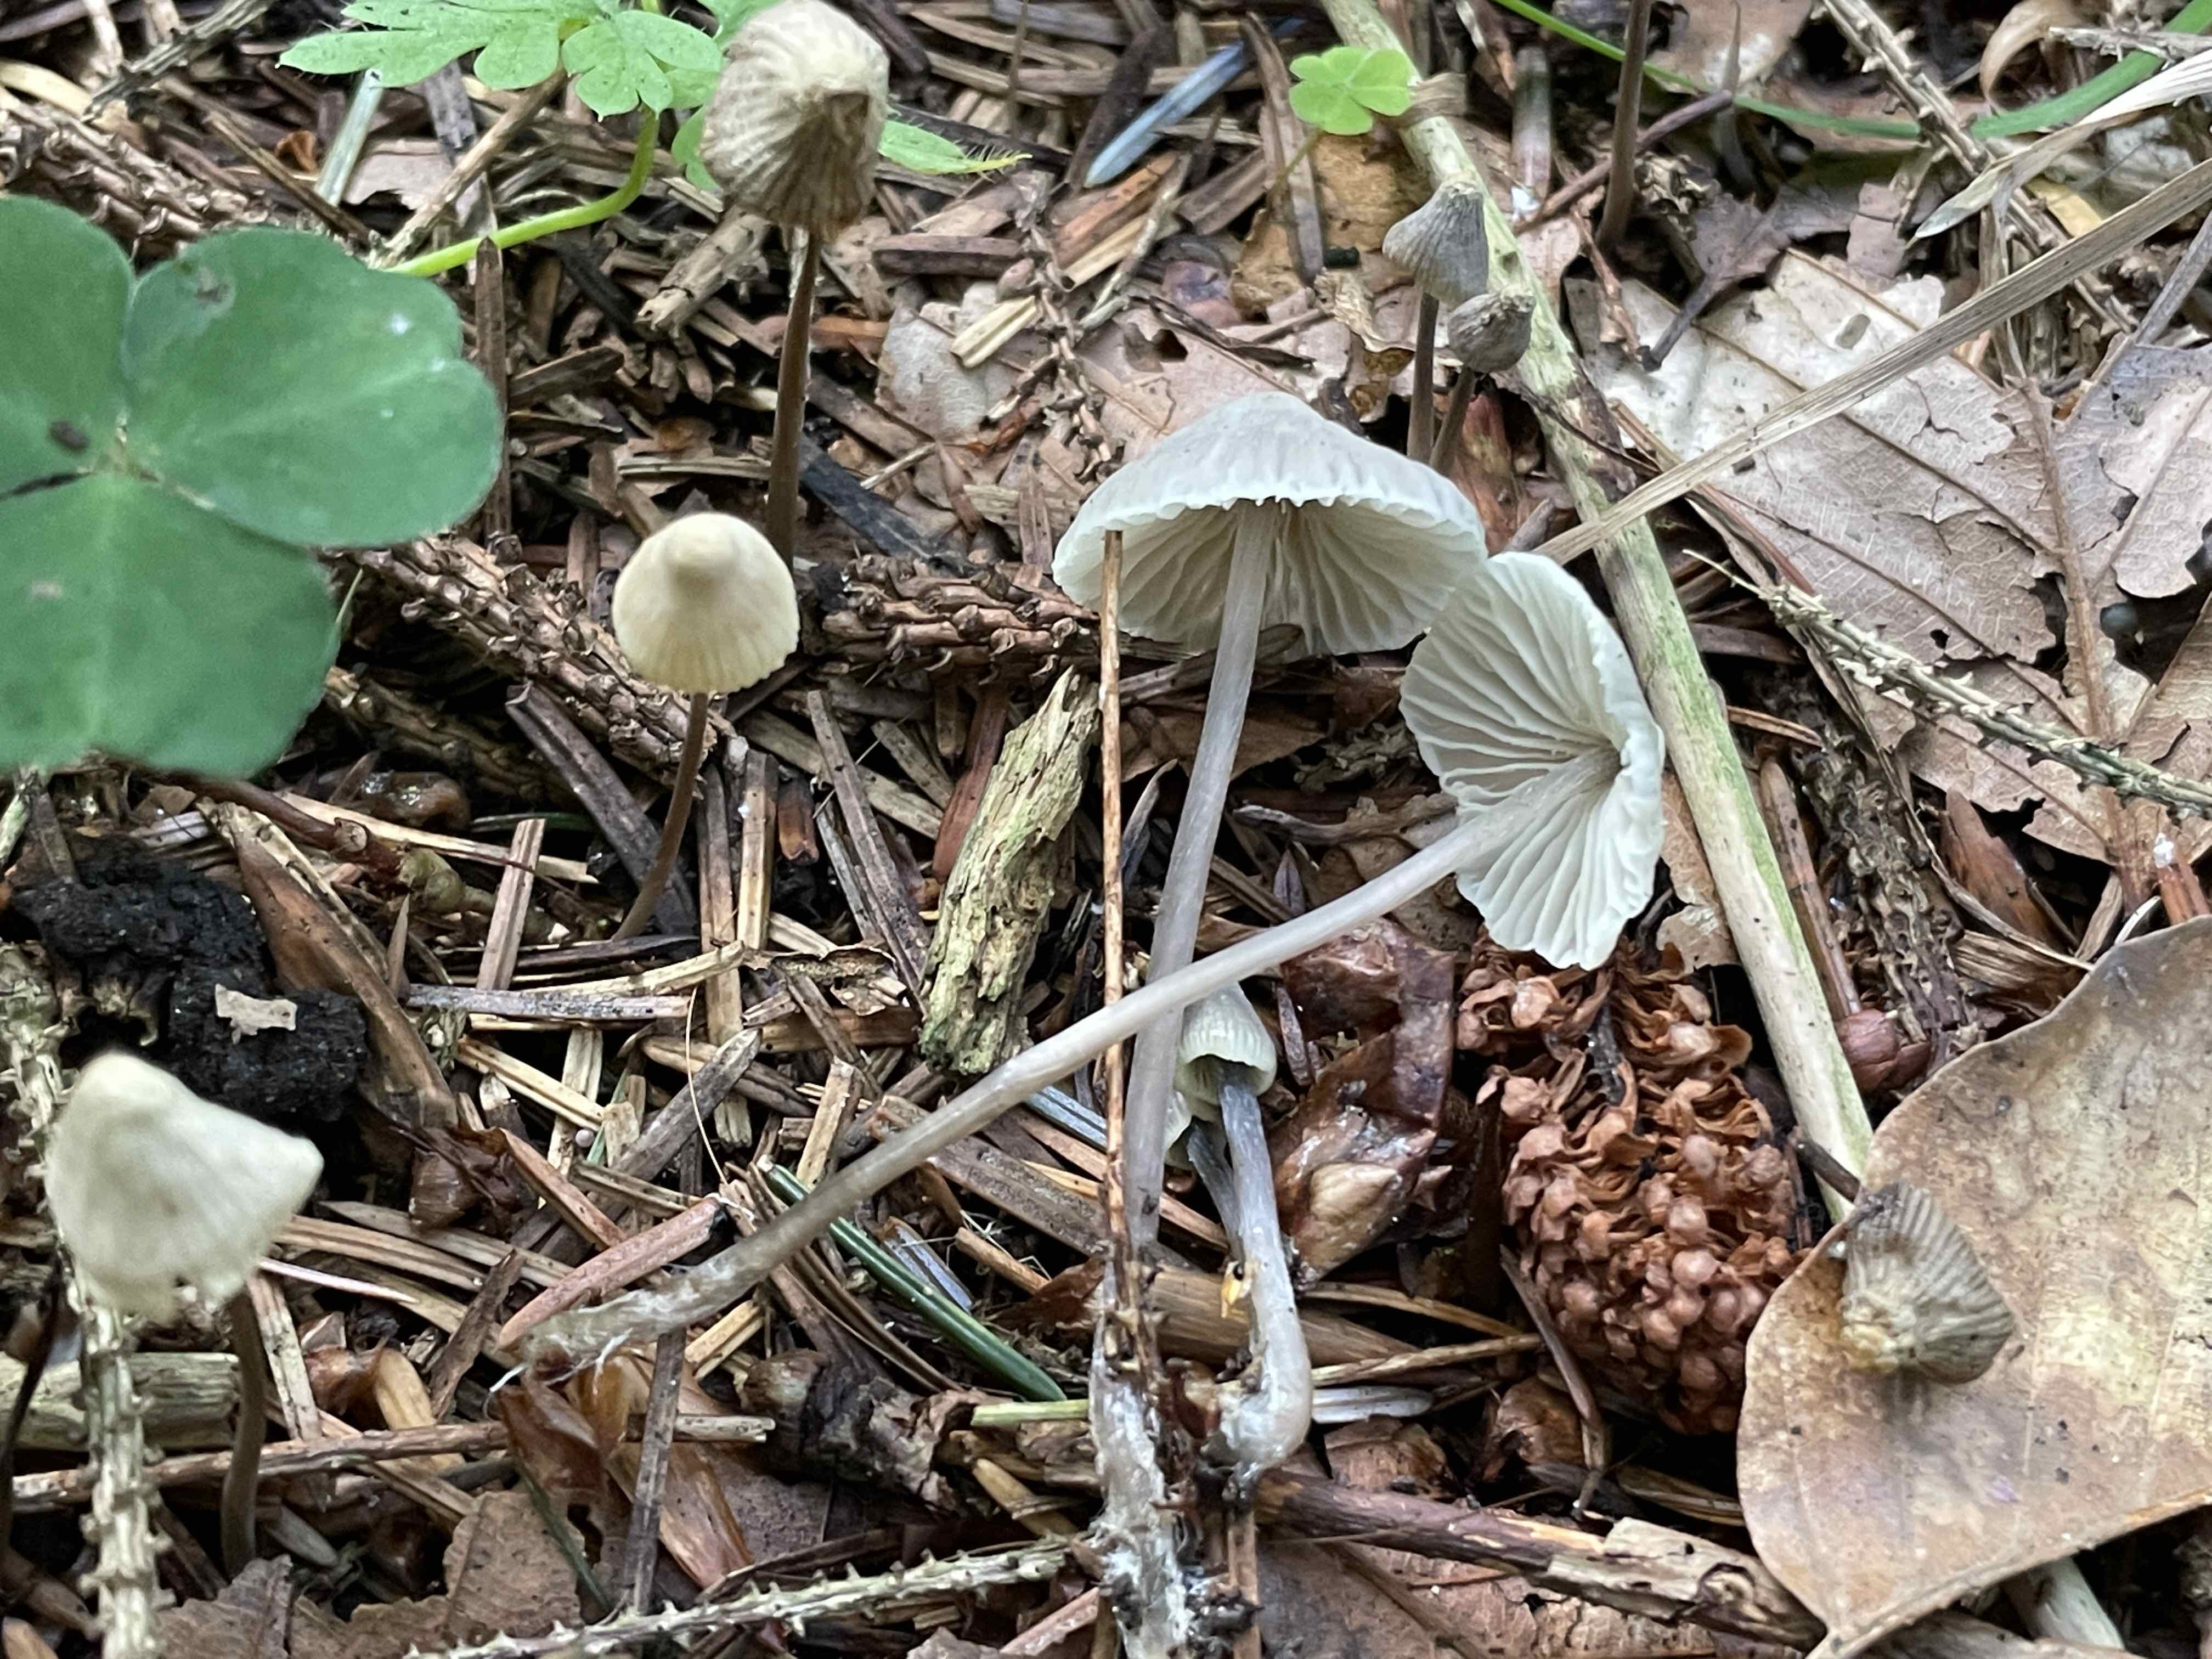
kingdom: Fungi
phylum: Basidiomycota
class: Agaricomycetes
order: Agaricales
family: Mycenaceae
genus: Mycena
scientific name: Mycena
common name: huesvamp
